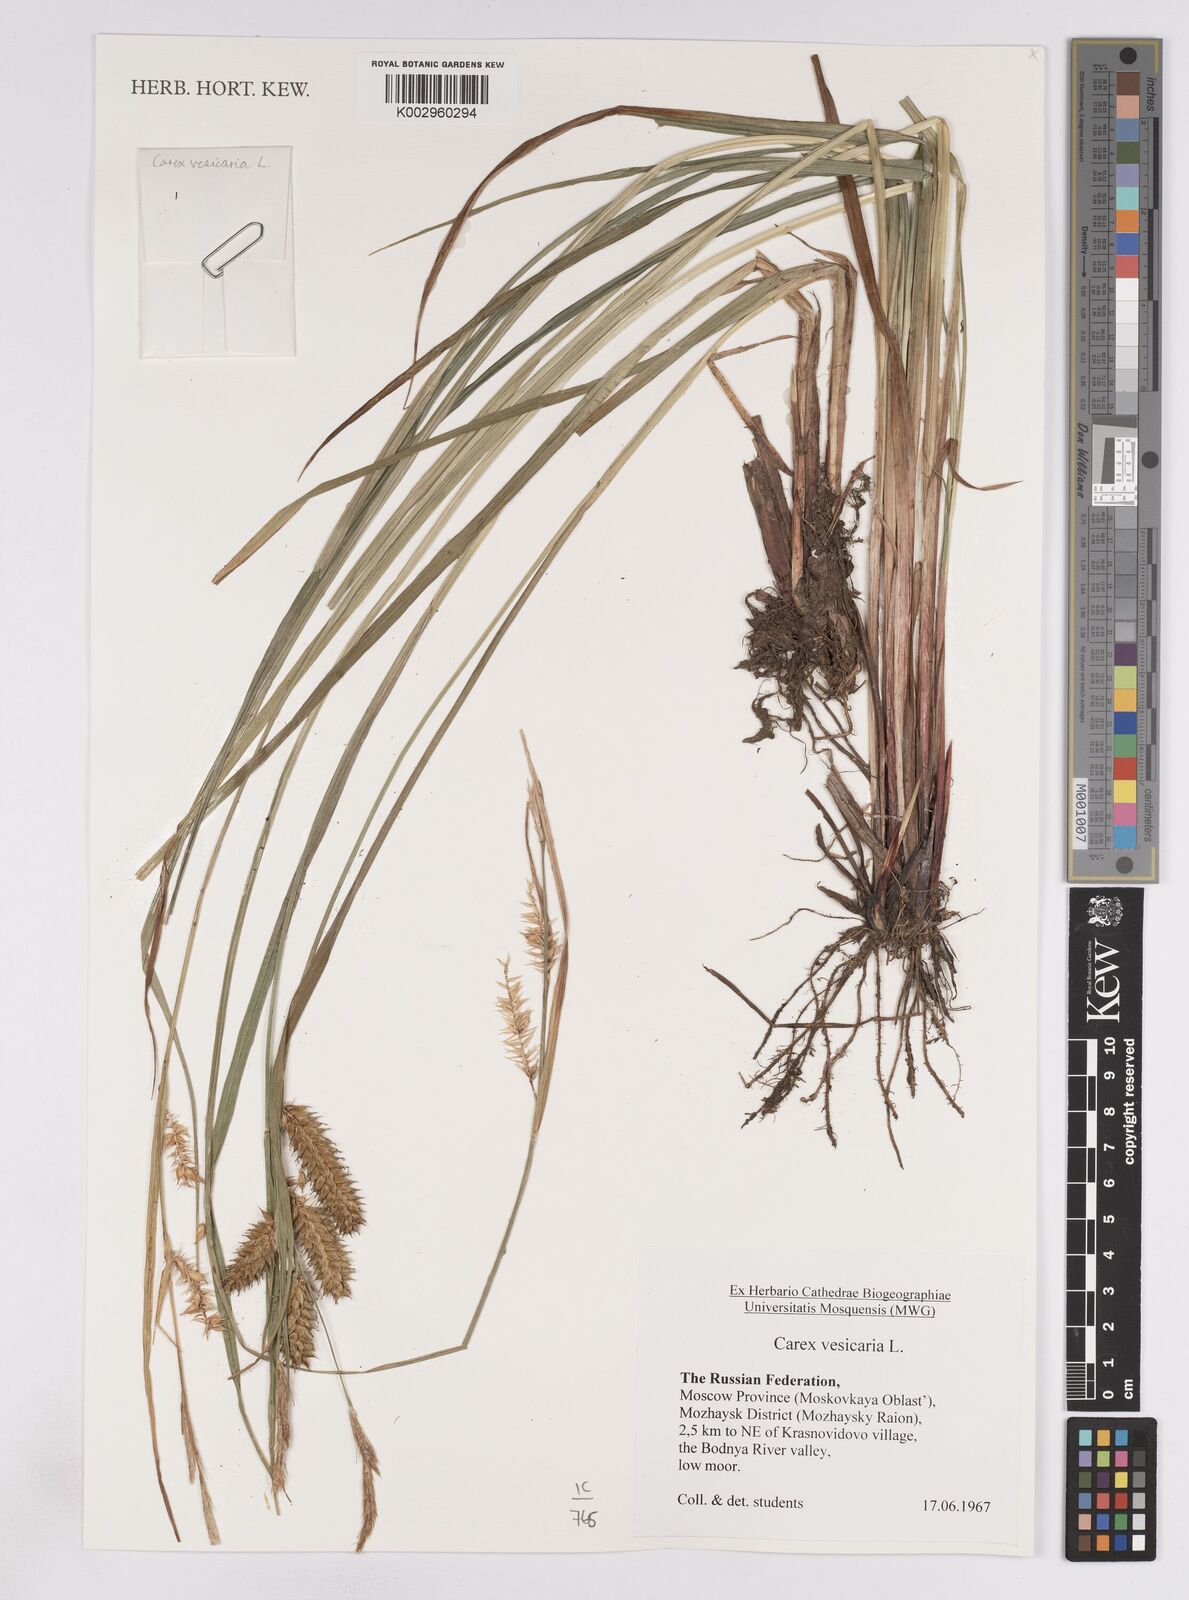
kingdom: Plantae
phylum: Tracheophyta
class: Liliopsida
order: Poales
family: Cyperaceae
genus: Carex
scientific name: Carex vesicaria
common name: Bladder-sedge
